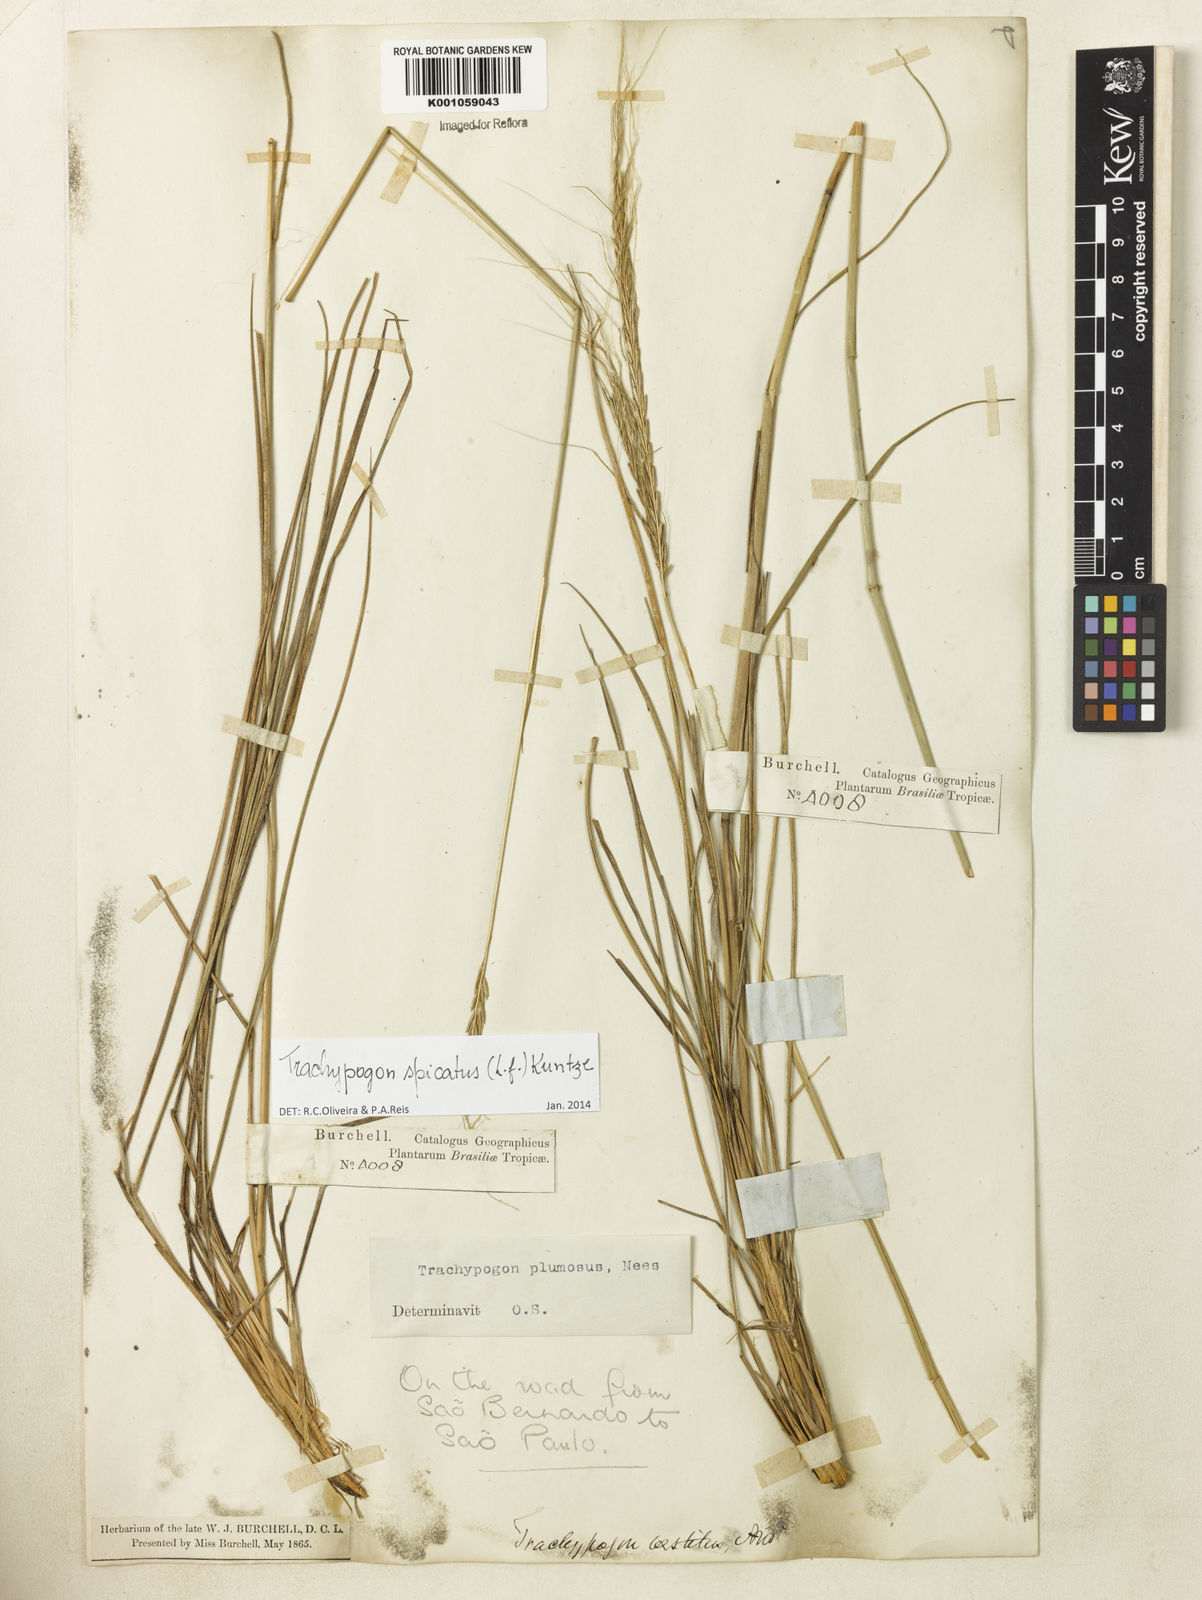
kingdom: Plantae
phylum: Tracheophyta
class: Liliopsida
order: Poales
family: Poaceae
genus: Trachypogon
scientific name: Trachypogon spicatus
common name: Crinkle-awn
